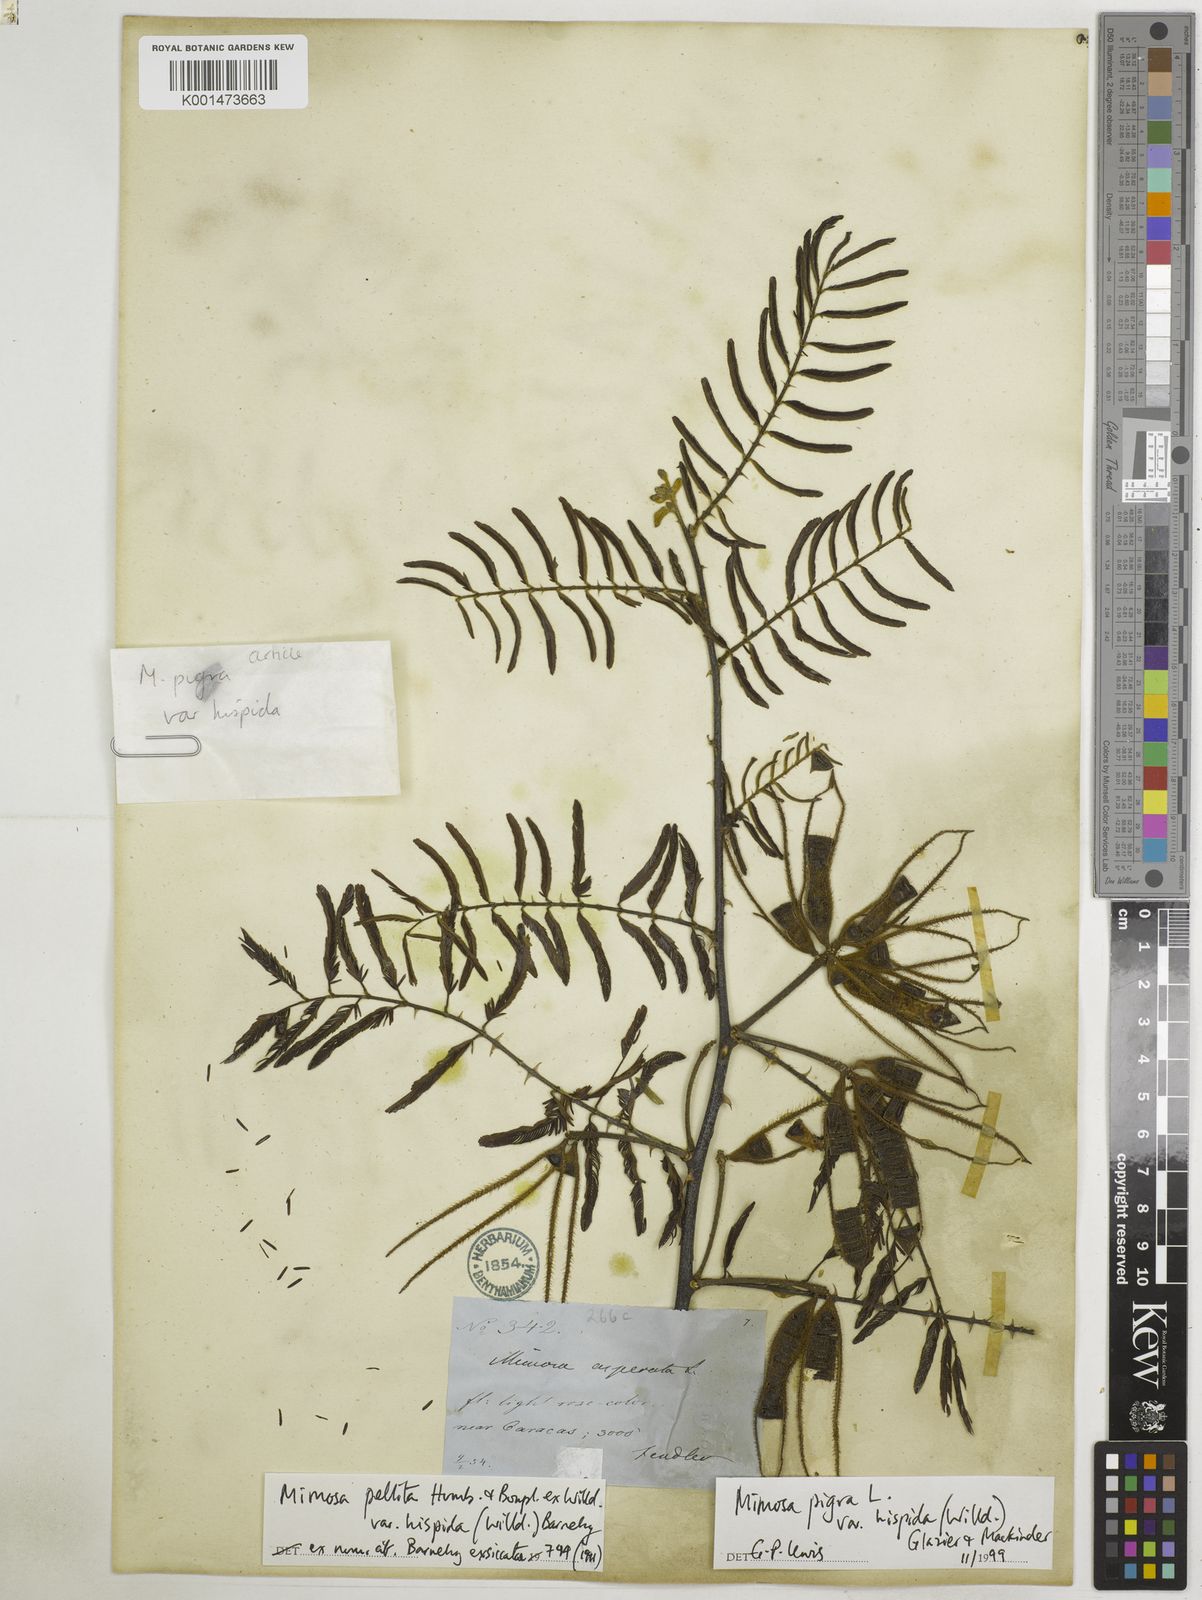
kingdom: Plantae
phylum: Tracheophyta
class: Magnoliopsida
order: Fabales
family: Fabaceae
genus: Mimosa
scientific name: Mimosa pigra
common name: Black mimosa
